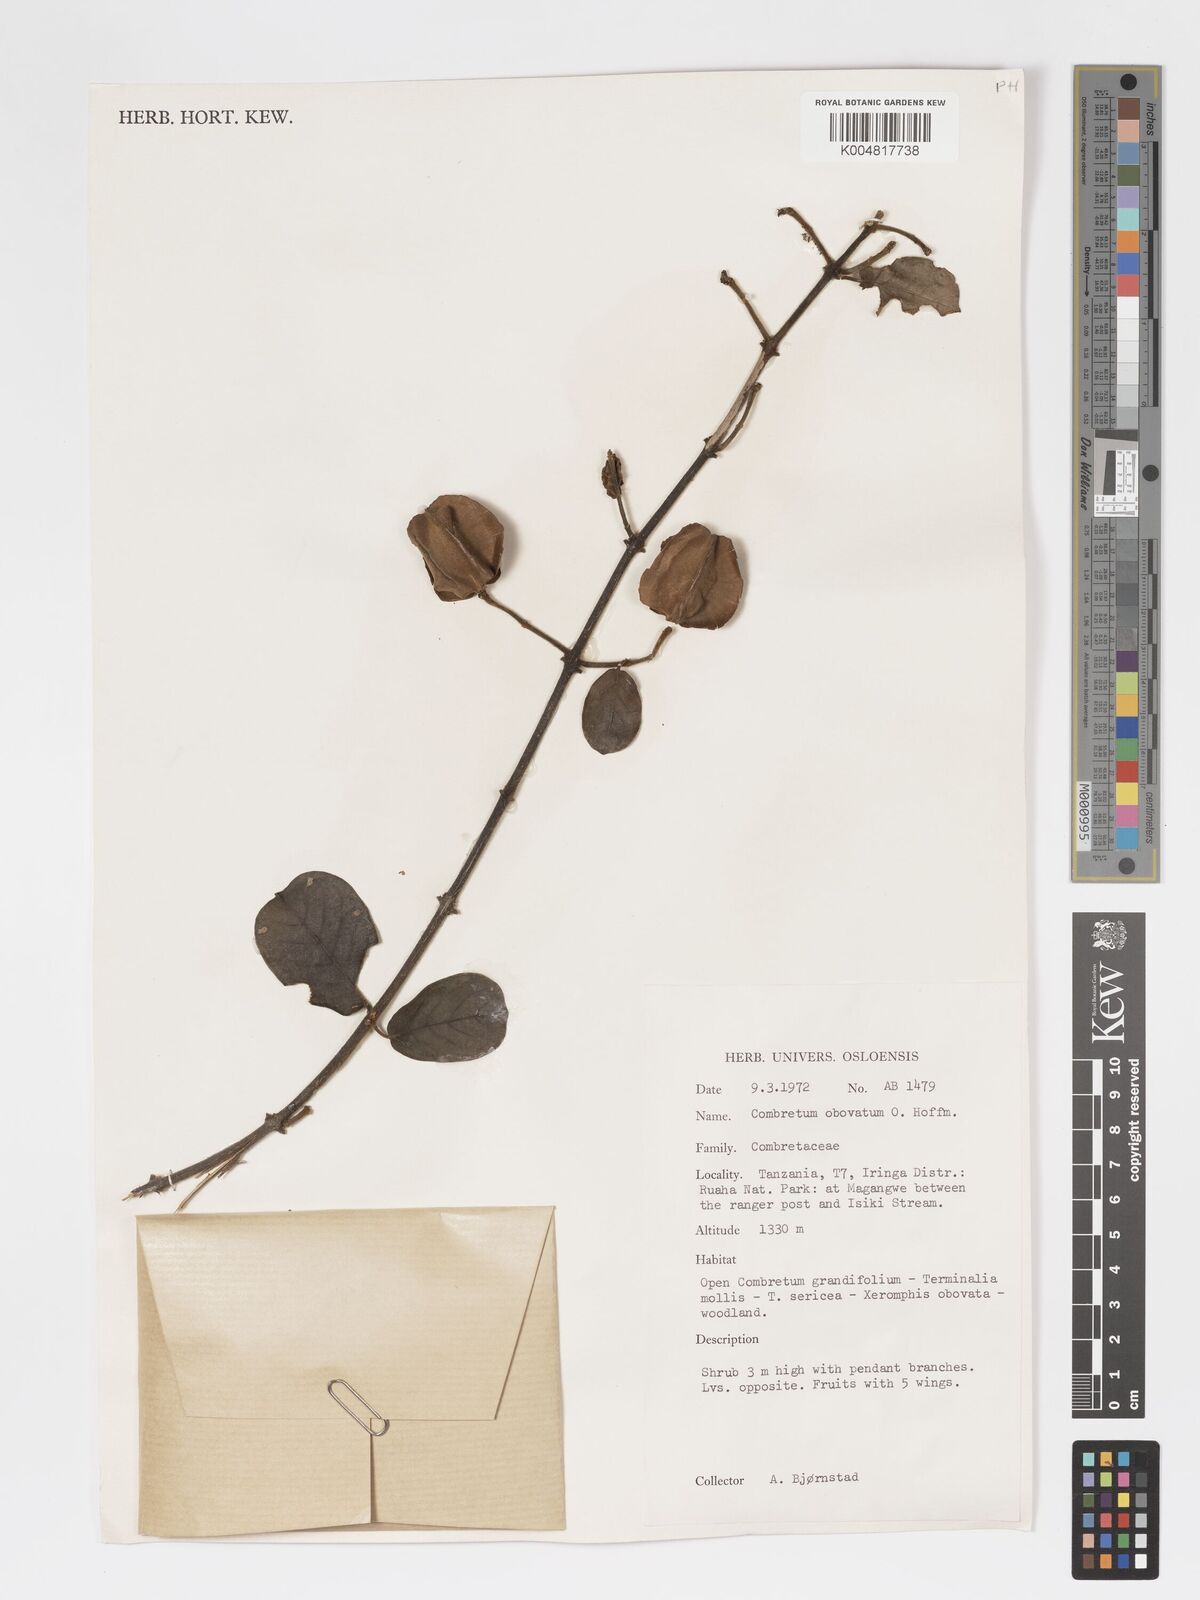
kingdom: Plantae
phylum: Tracheophyta
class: Magnoliopsida
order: Myrtales
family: Combretaceae
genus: Combretum
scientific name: Combretum obovatum
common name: Spiny combretum
